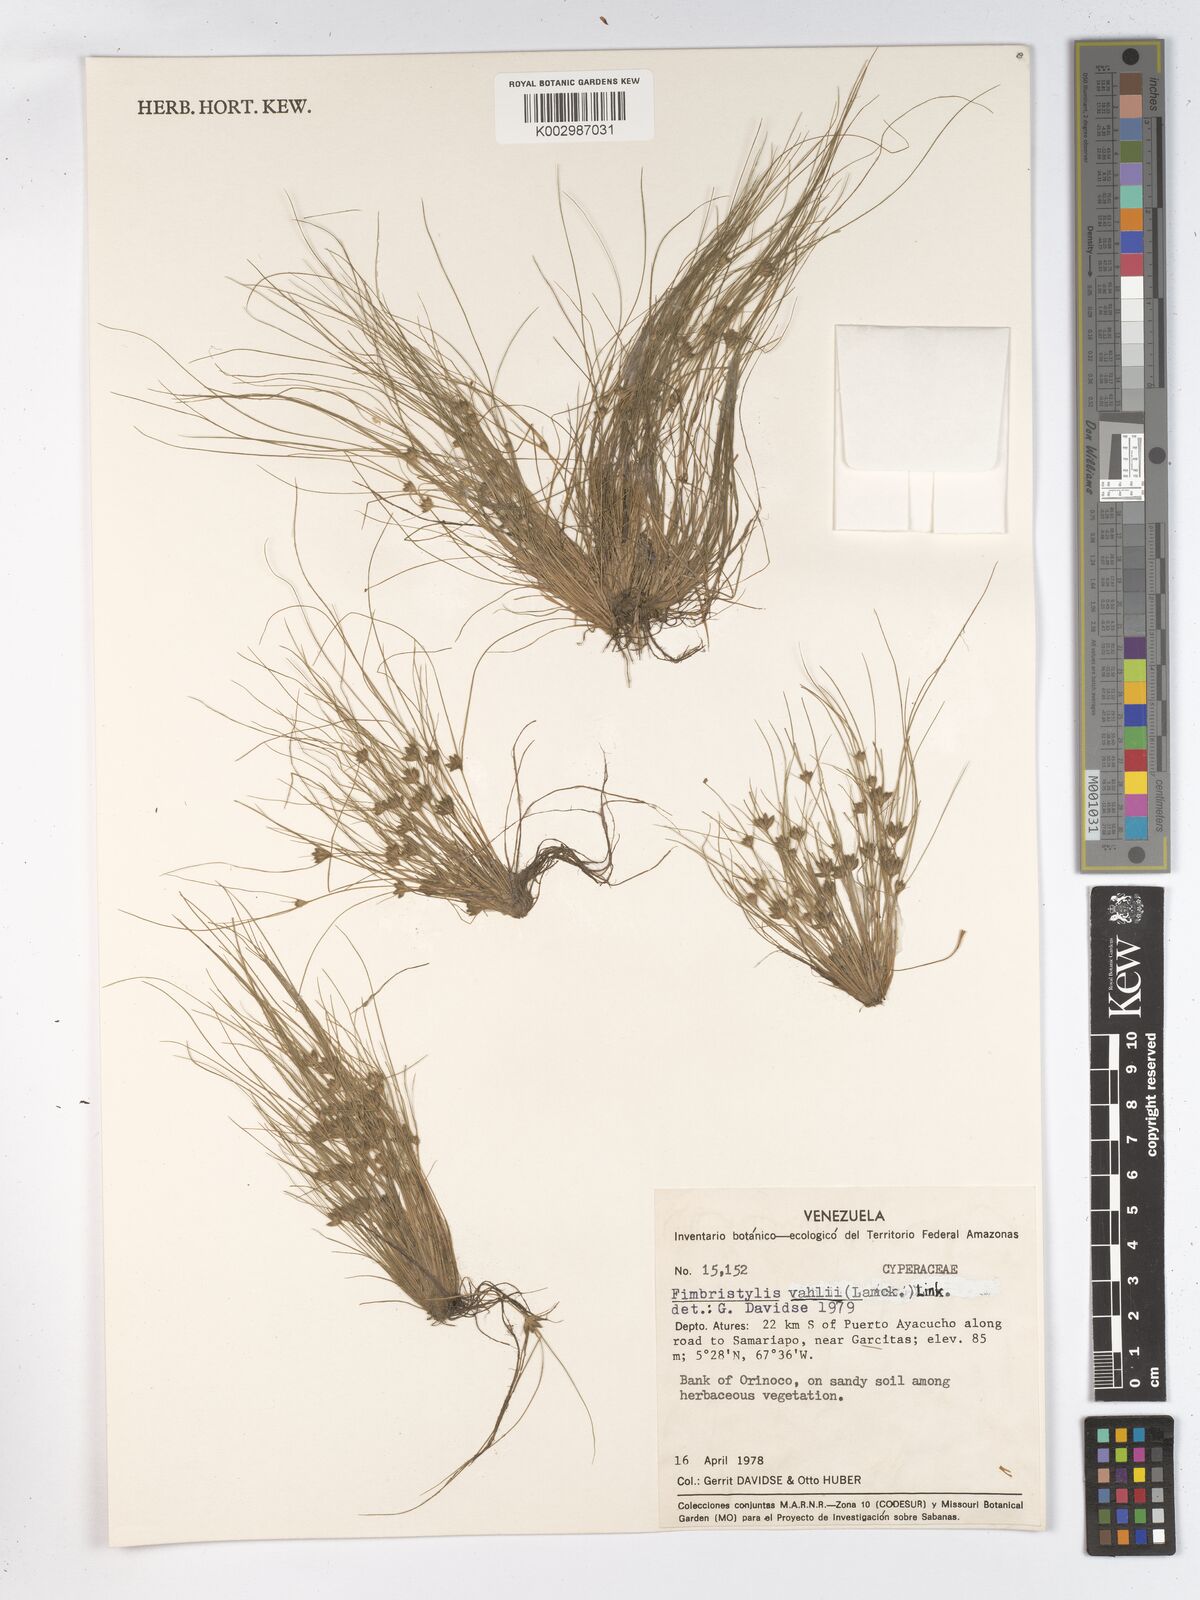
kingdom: Plantae
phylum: Tracheophyta
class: Liliopsida
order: Poales
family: Cyperaceae
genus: Fimbristylis
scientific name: Fimbristylis vahlii
